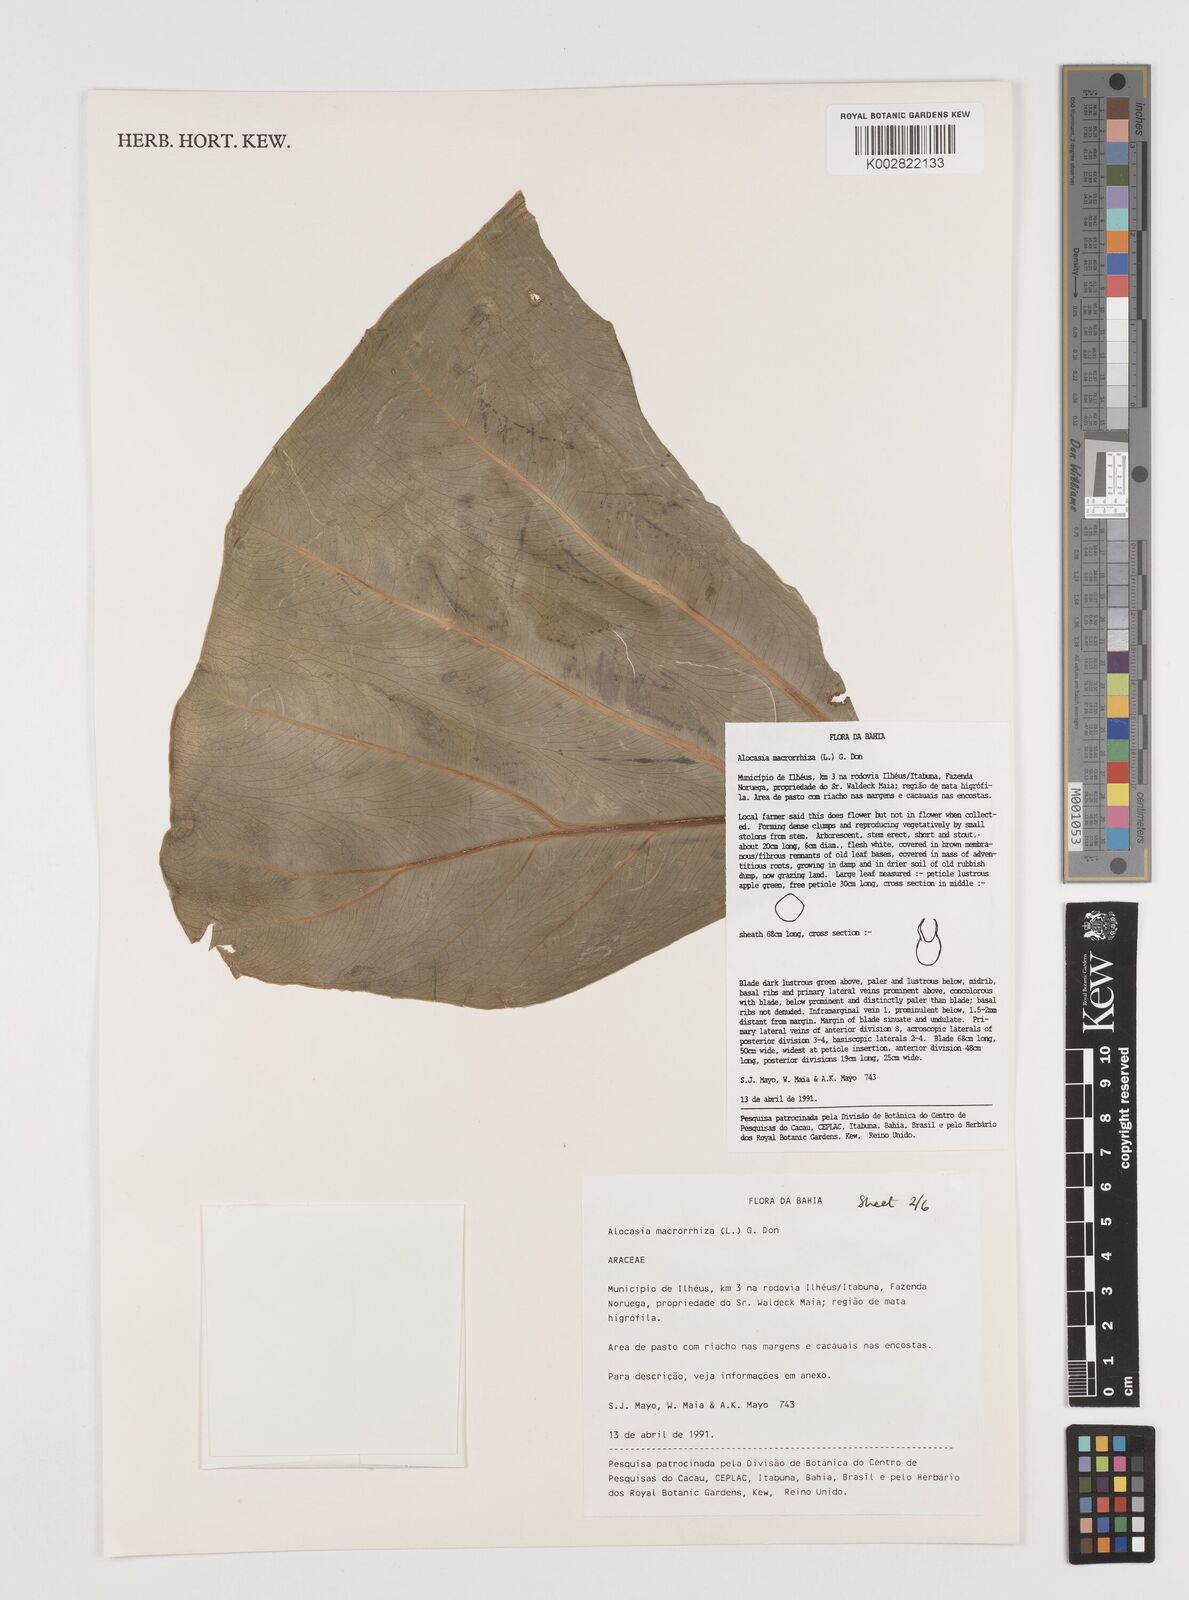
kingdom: Plantae
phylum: Tracheophyta
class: Liliopsida
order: Alismatales
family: Araceae
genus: Alocasia
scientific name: Alocasia macrorrhizos
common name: Giant taro
